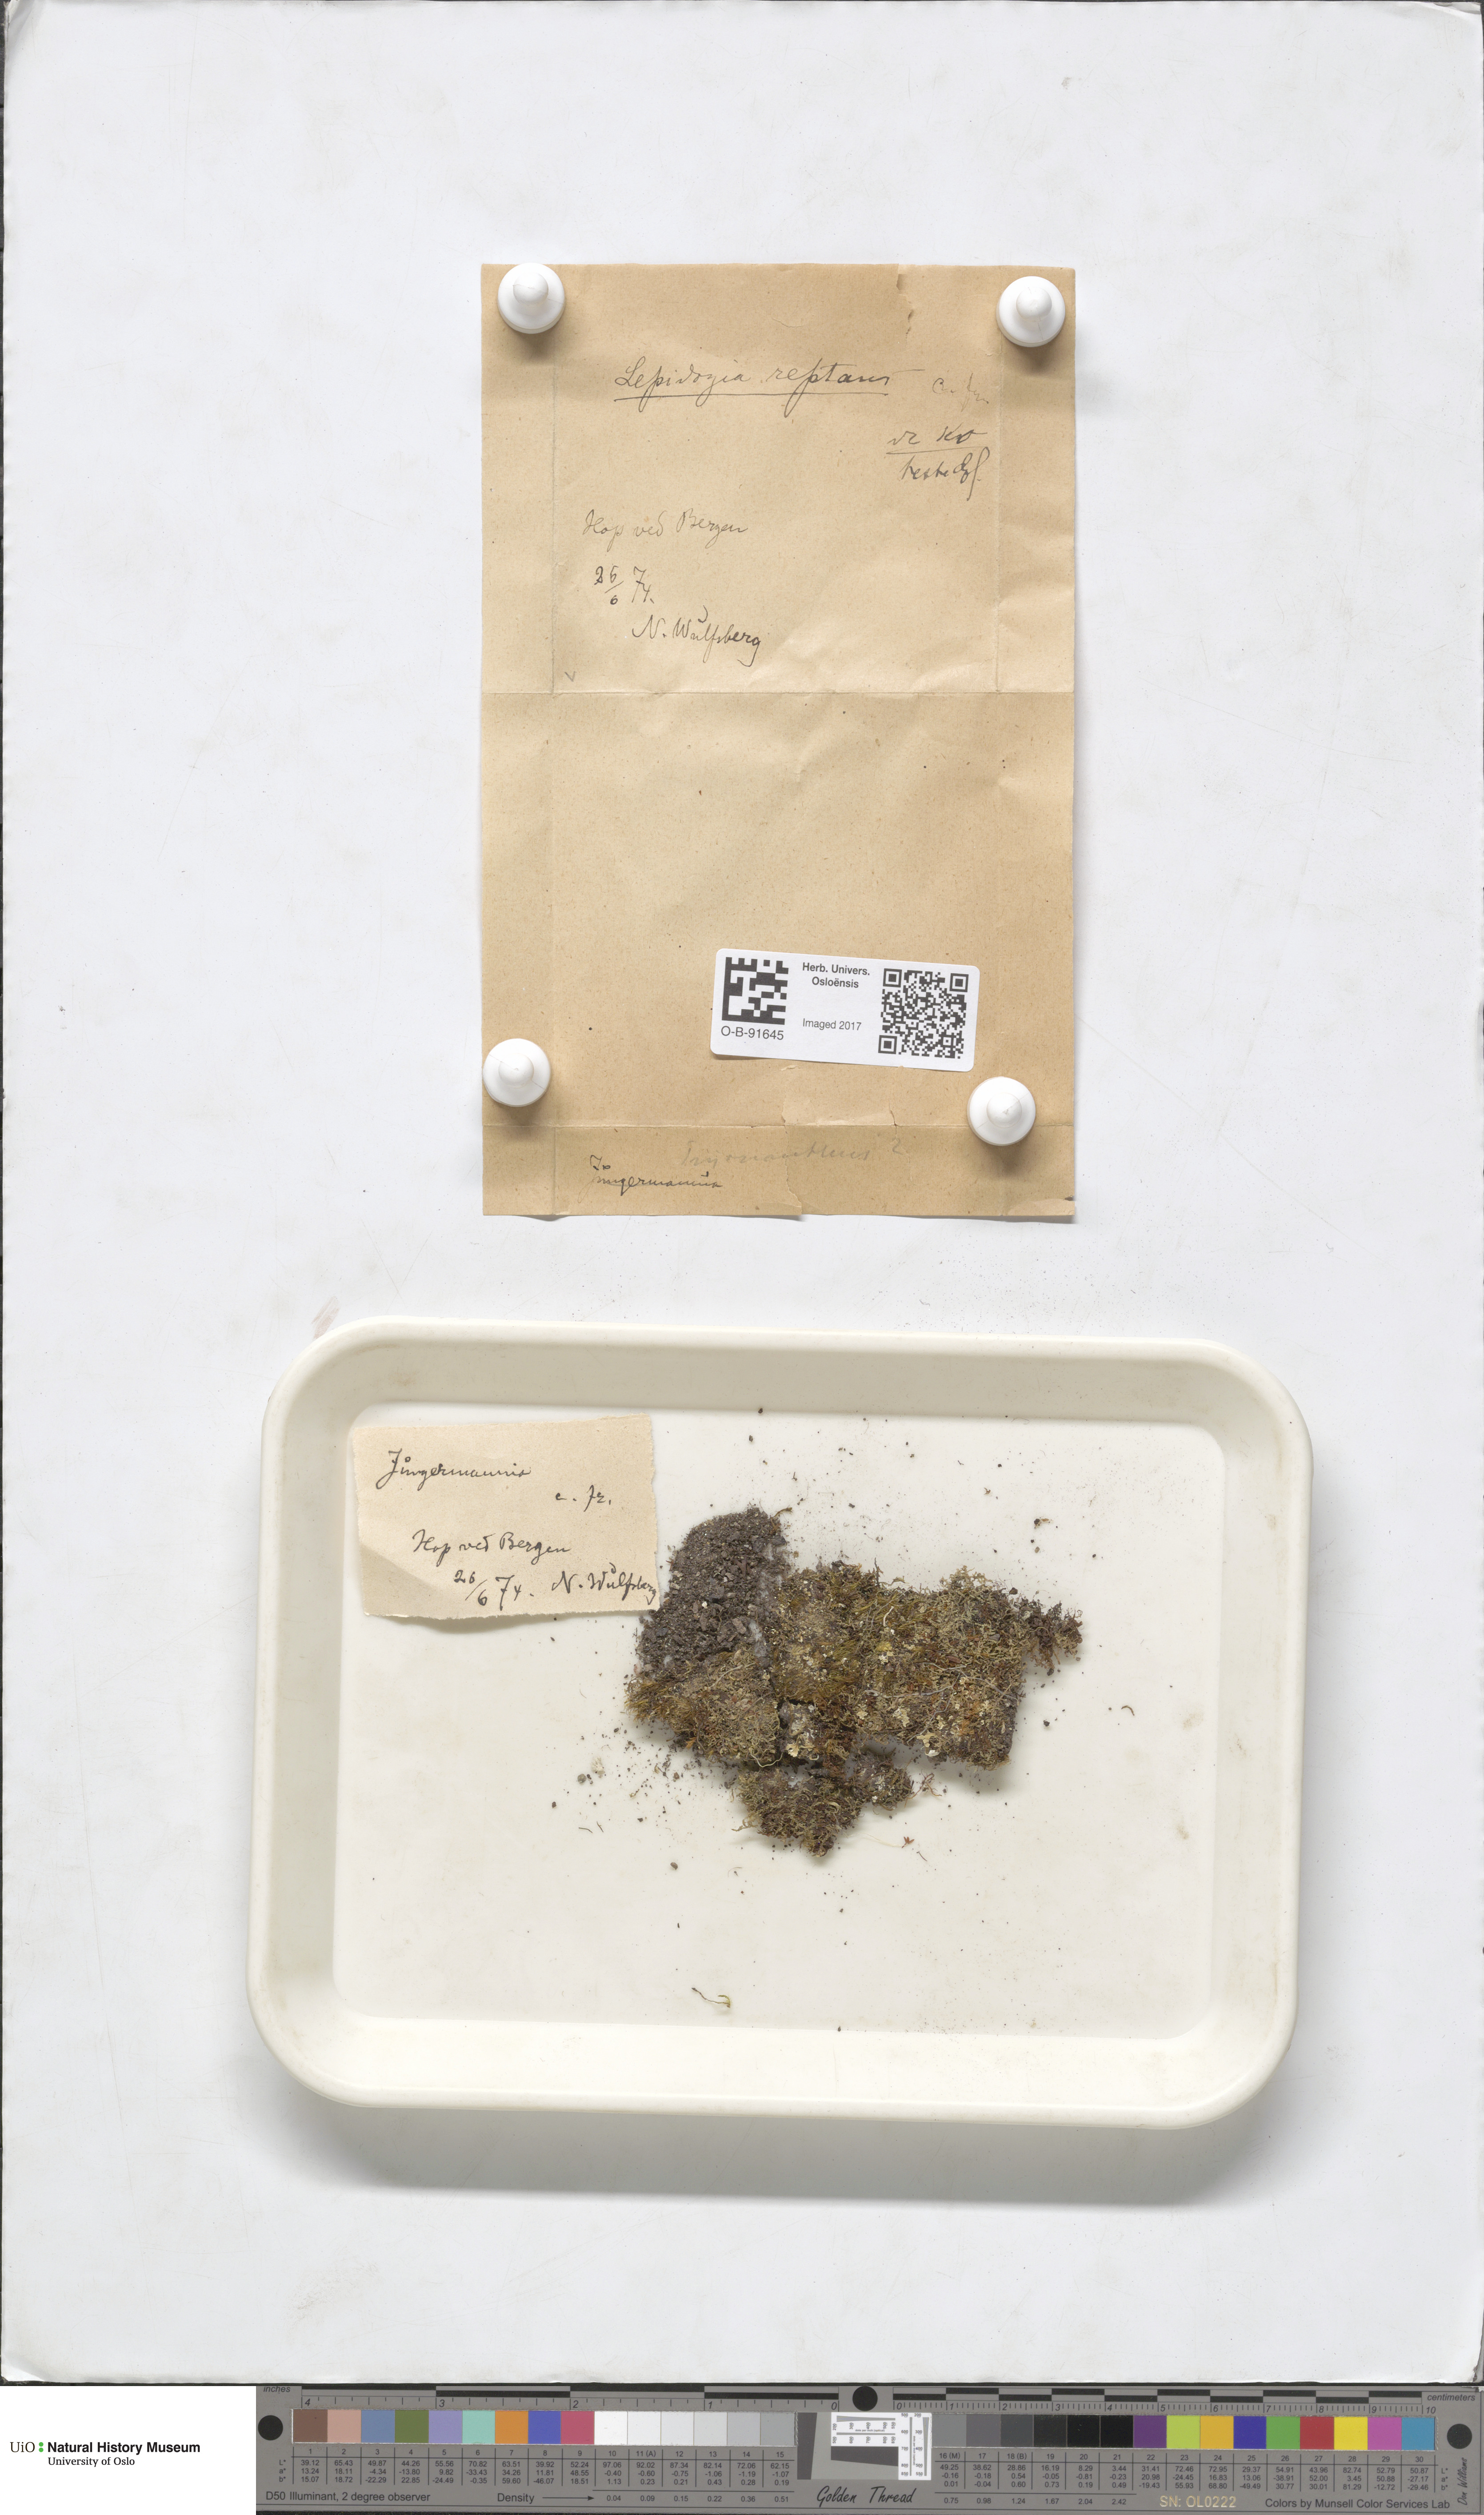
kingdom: Plantae
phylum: Marchantiophyta
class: Jungermanniopsida
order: Jungermanniales
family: Lepidoziaceae
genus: Lepidozia
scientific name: Lepidozia reptans
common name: Creeping fingerwort
